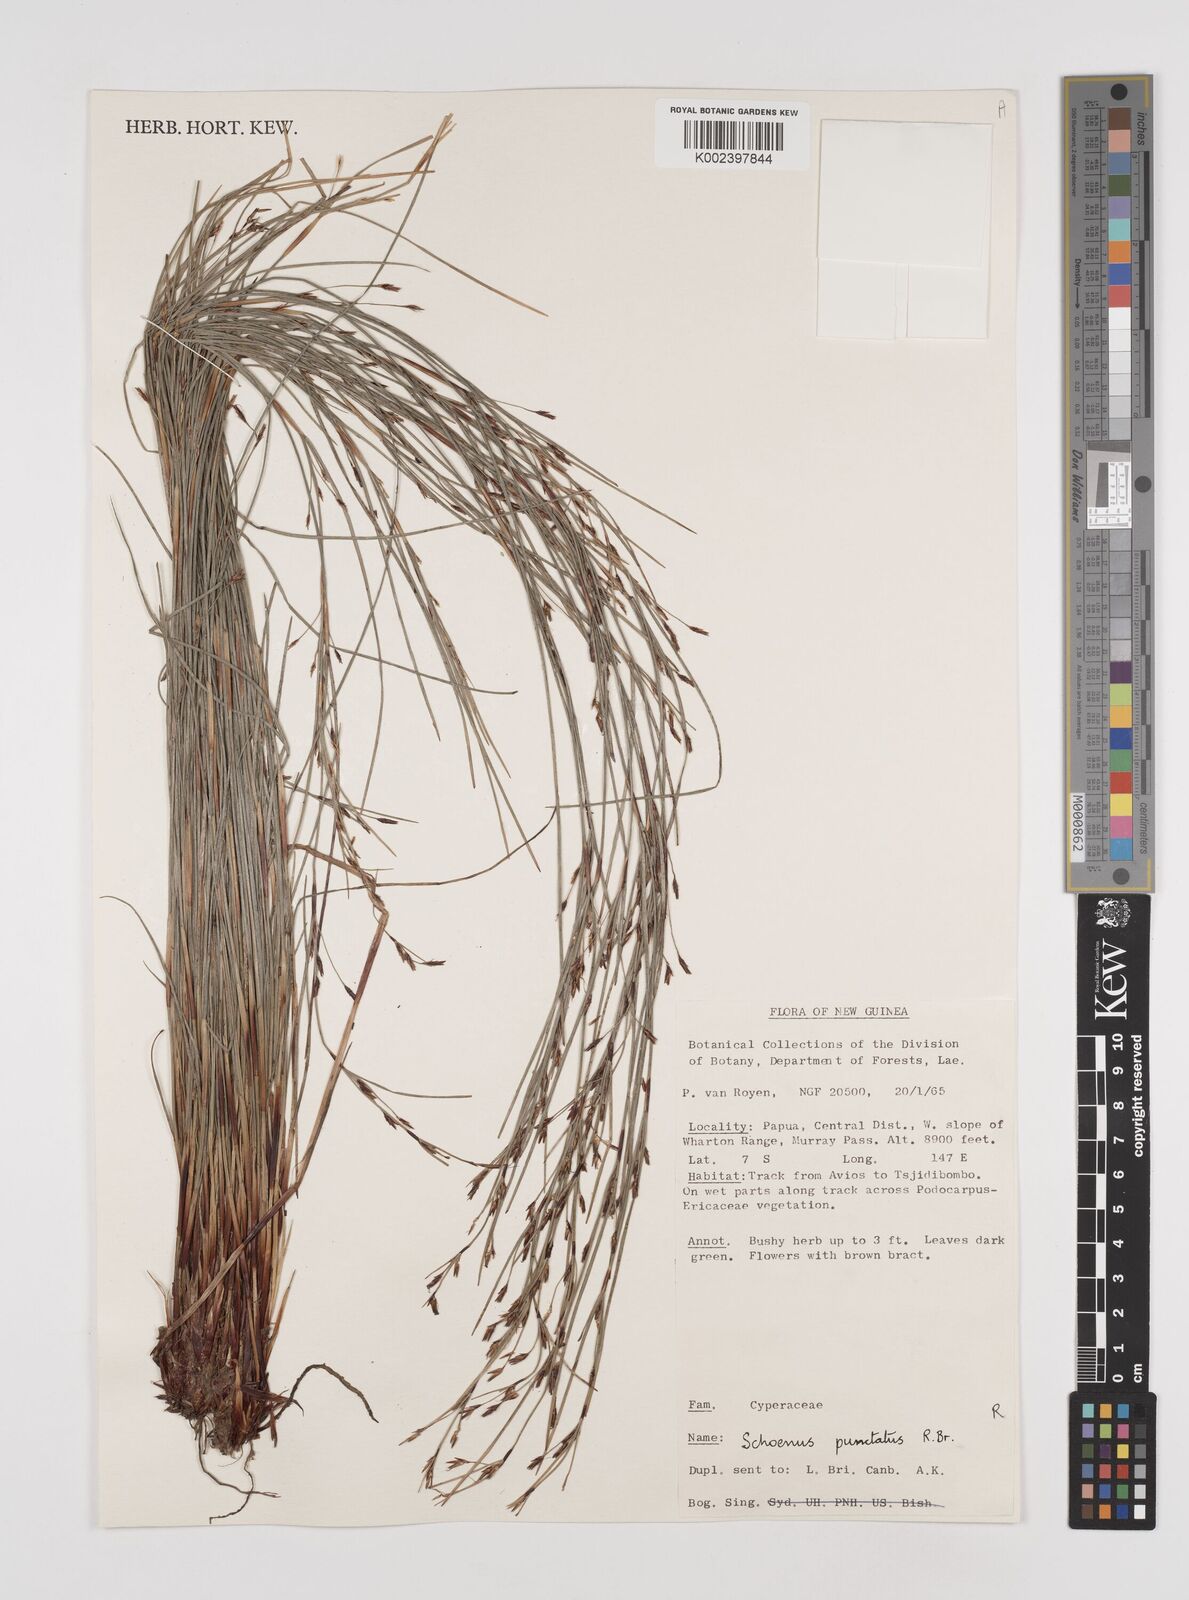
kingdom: Plantae
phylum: Tracheophyta
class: Liliopsida
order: Poales
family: Cyperaceae
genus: Schoenus
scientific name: Schoenus falcatus
